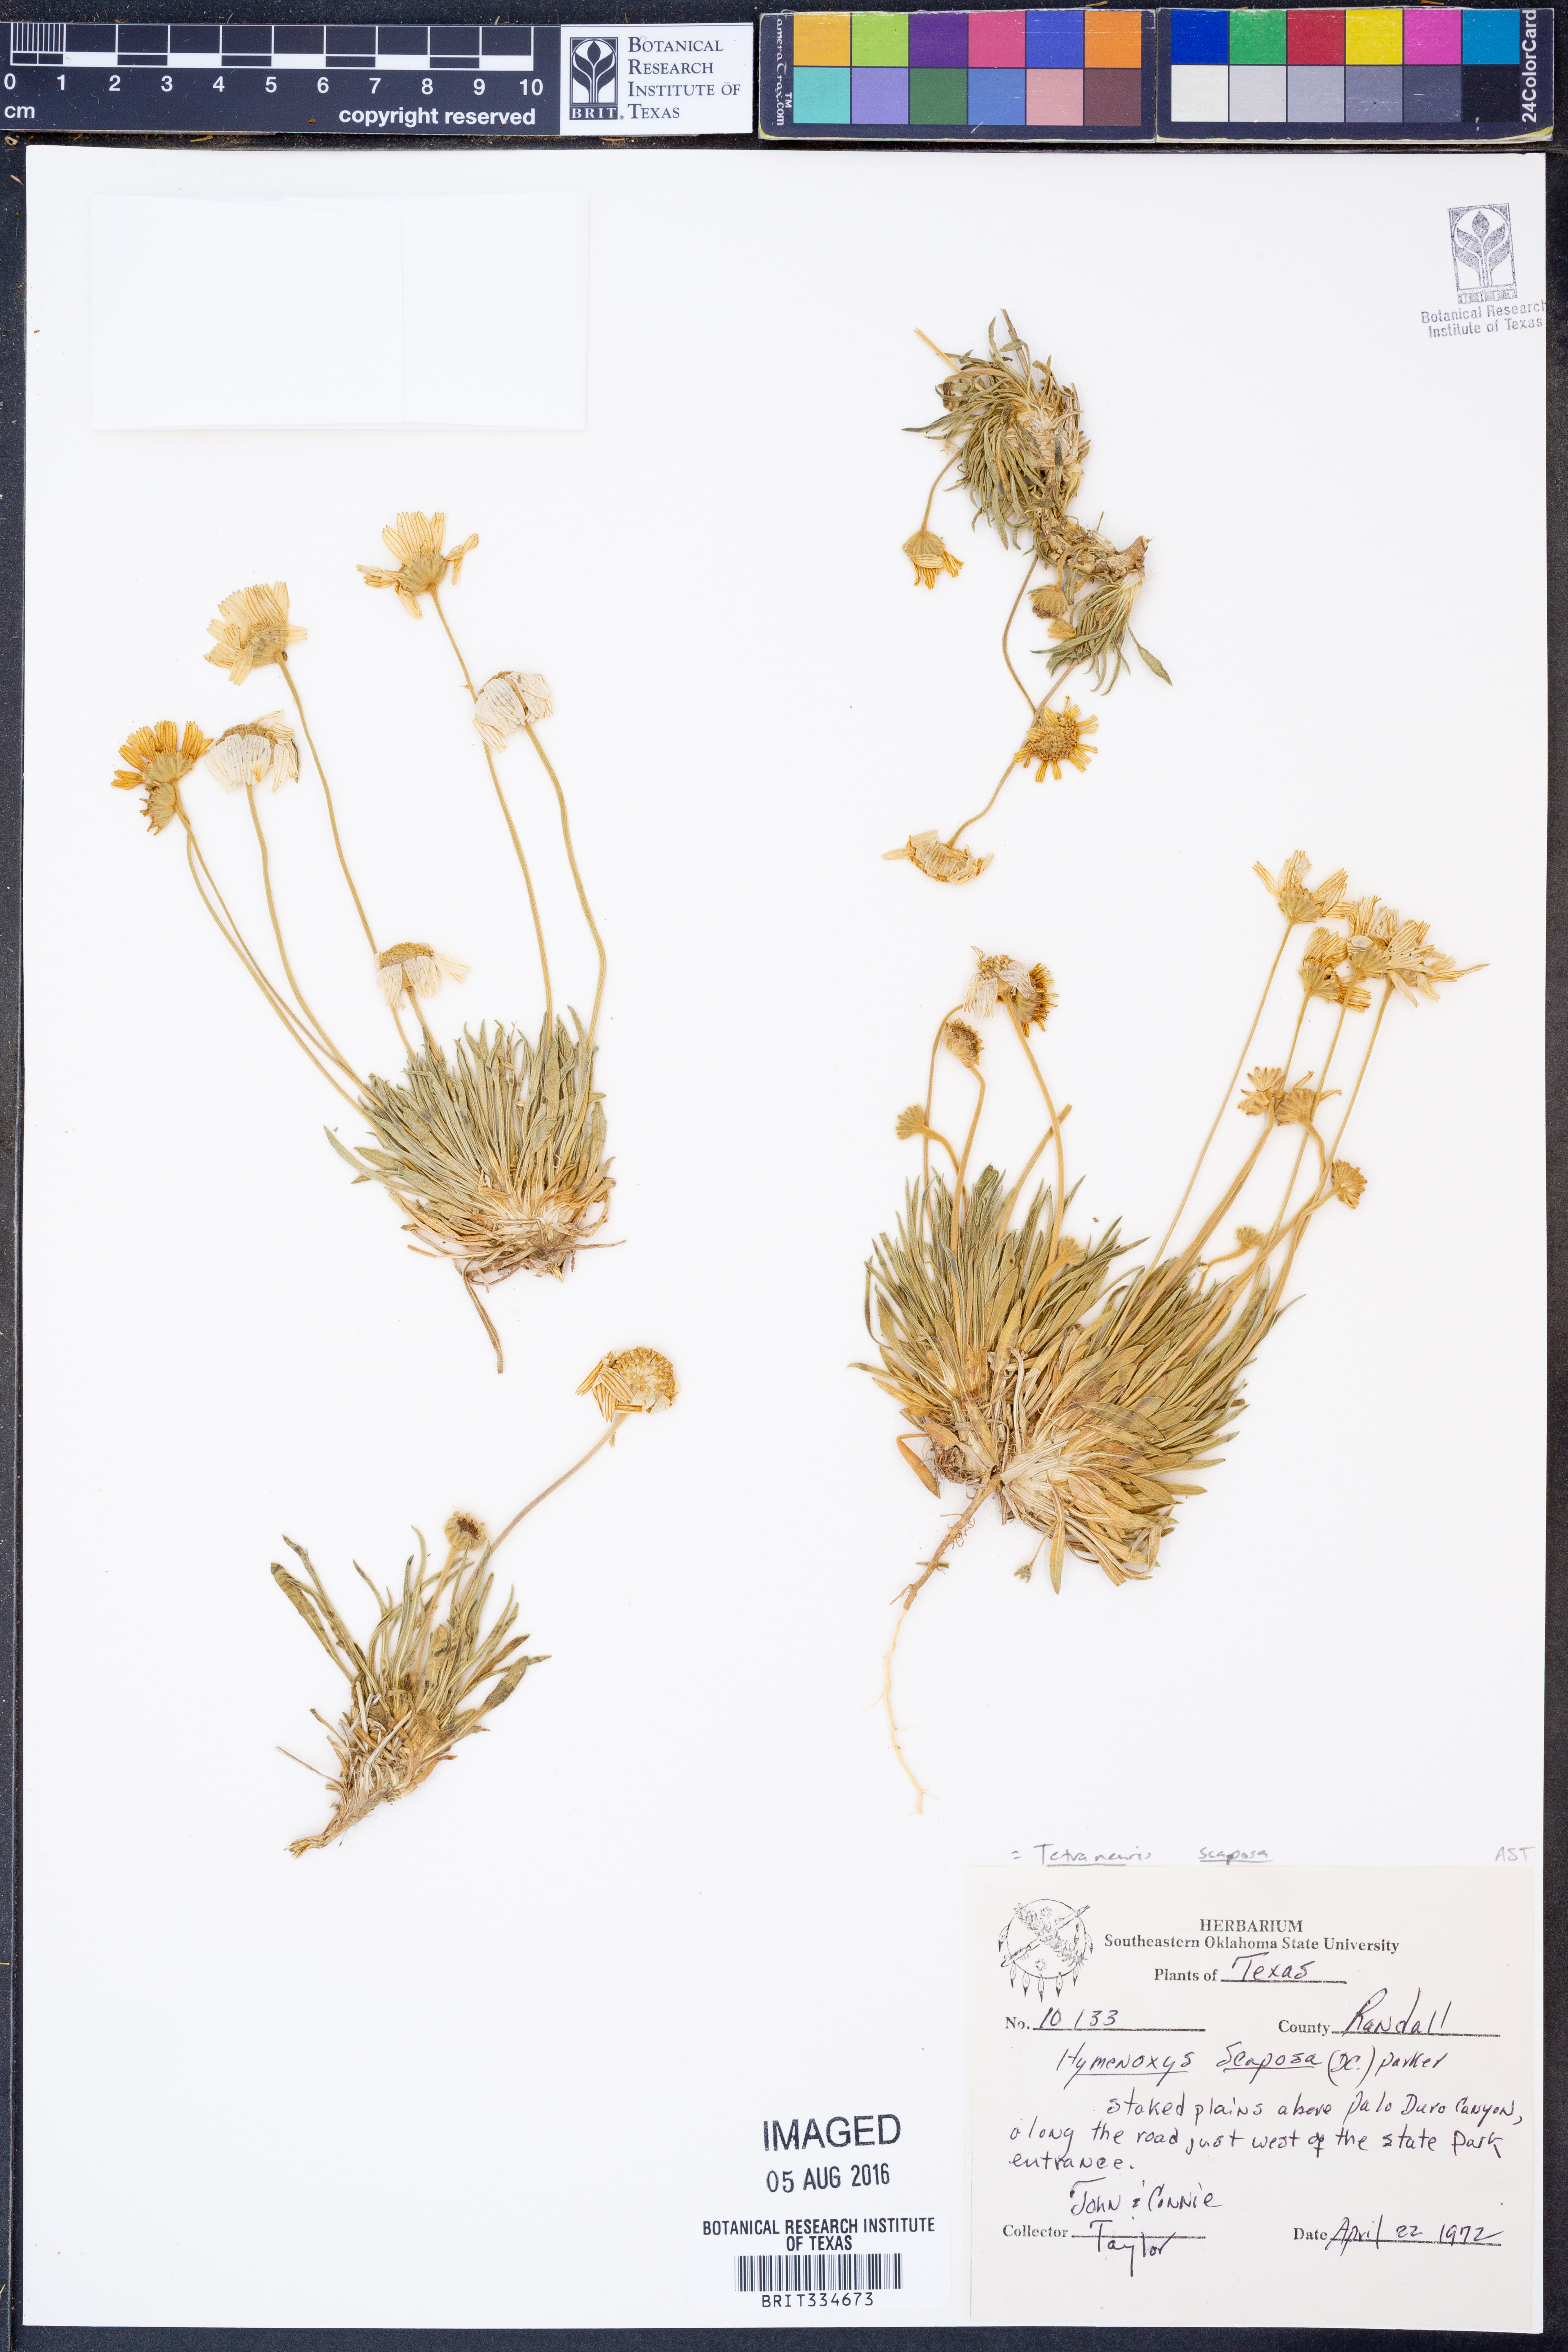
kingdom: Plantae
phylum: Tracheophyta
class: Magnoliopsida
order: Asterales
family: Asteraceae
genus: Tetraneuris
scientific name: Tetraneuris scaposa
